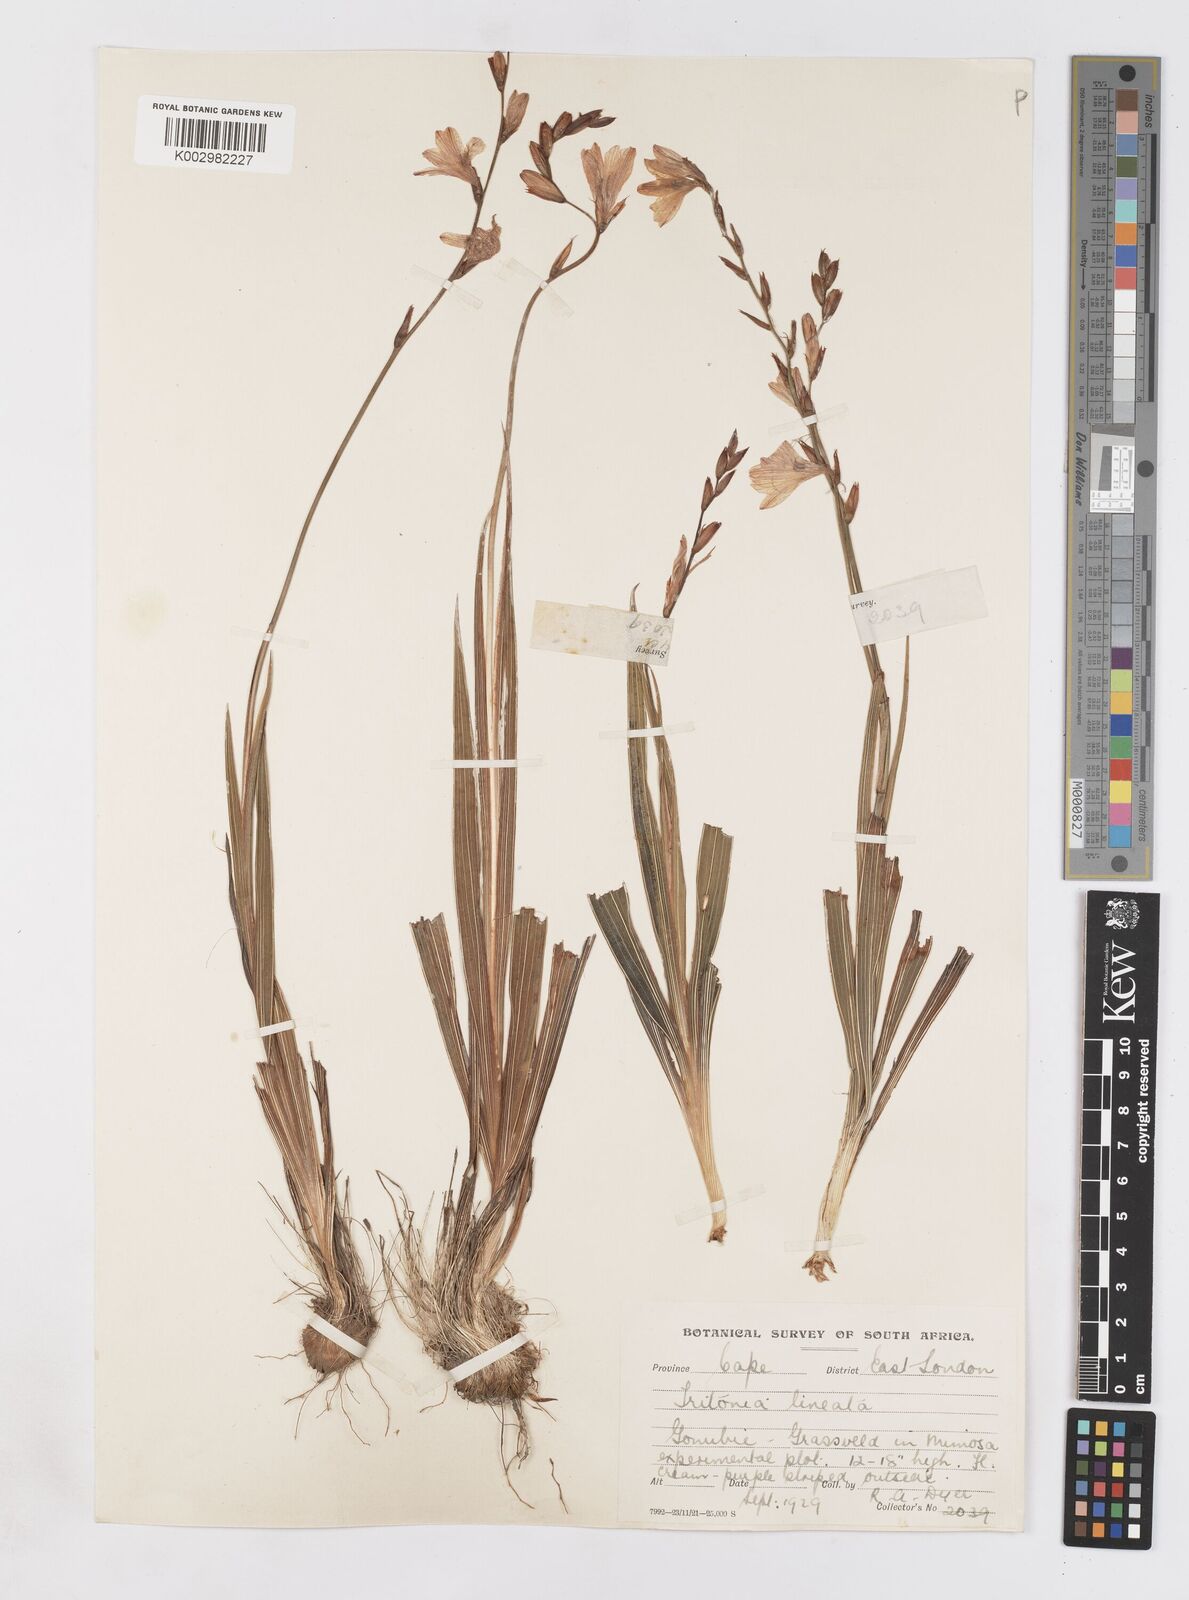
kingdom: Plantae
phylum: Tracheophyta
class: Liliopsida
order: Asparagales
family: Iridaceae
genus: Tritonia
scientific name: Tritonia gladiolaris
